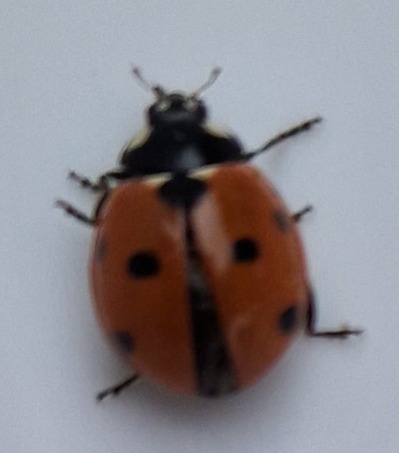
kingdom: Animalia
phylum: Arthropoda
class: Insecta
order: Coleoptera
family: Coccinellidae
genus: Coccinella
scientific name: Coccinella septempunctata
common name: Syvplettet mariehøne
